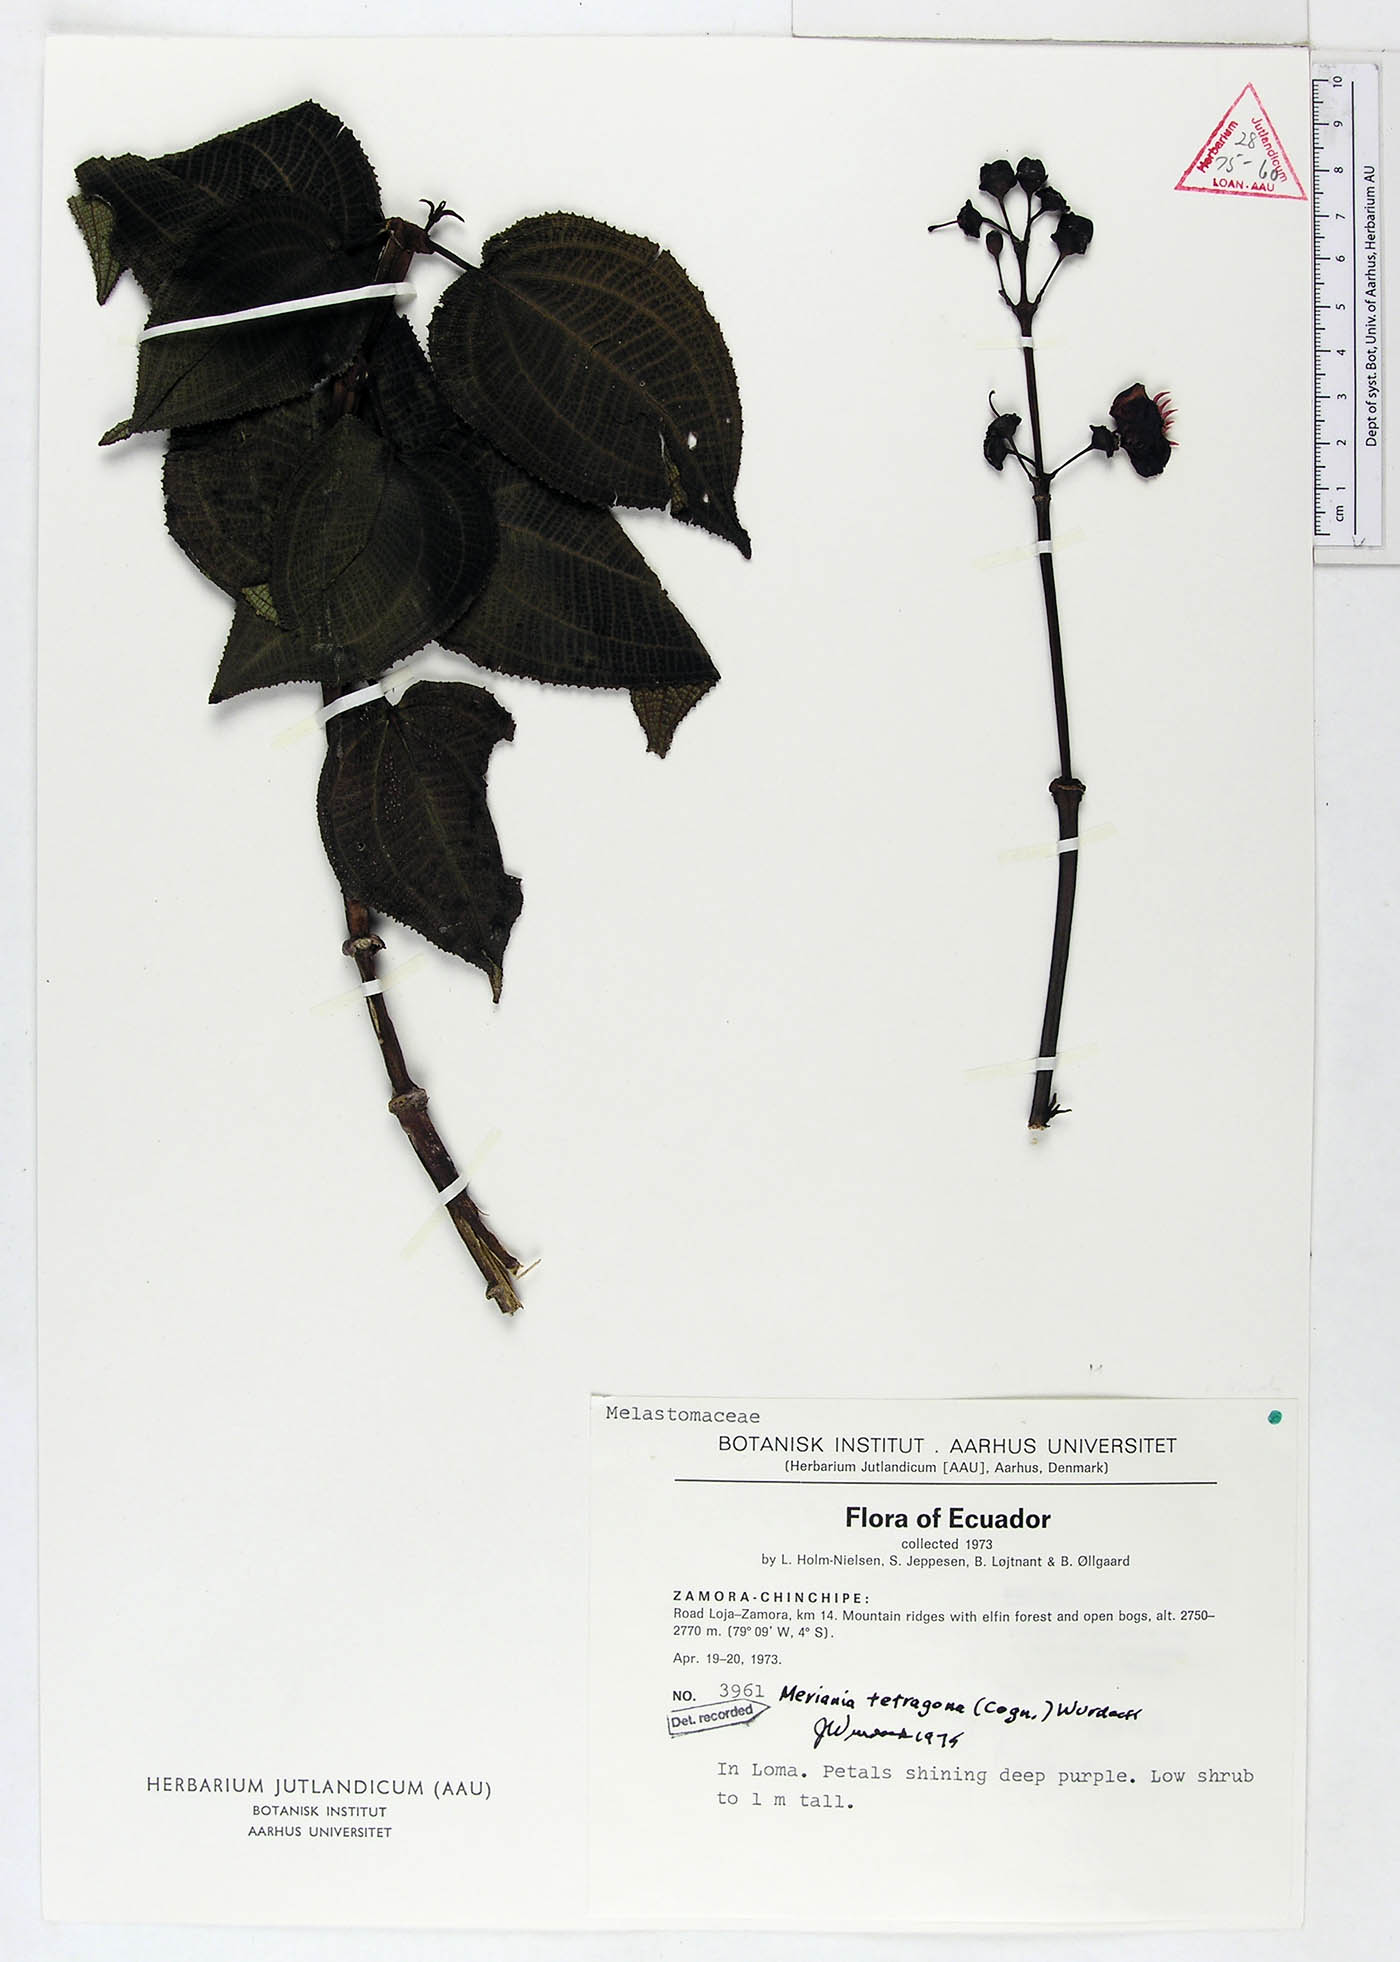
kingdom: Plantae
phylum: Tracheophyta
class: Magnoliopsida
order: Myrtales
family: Melastomataceae
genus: Meriania
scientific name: Meriania tetragona
